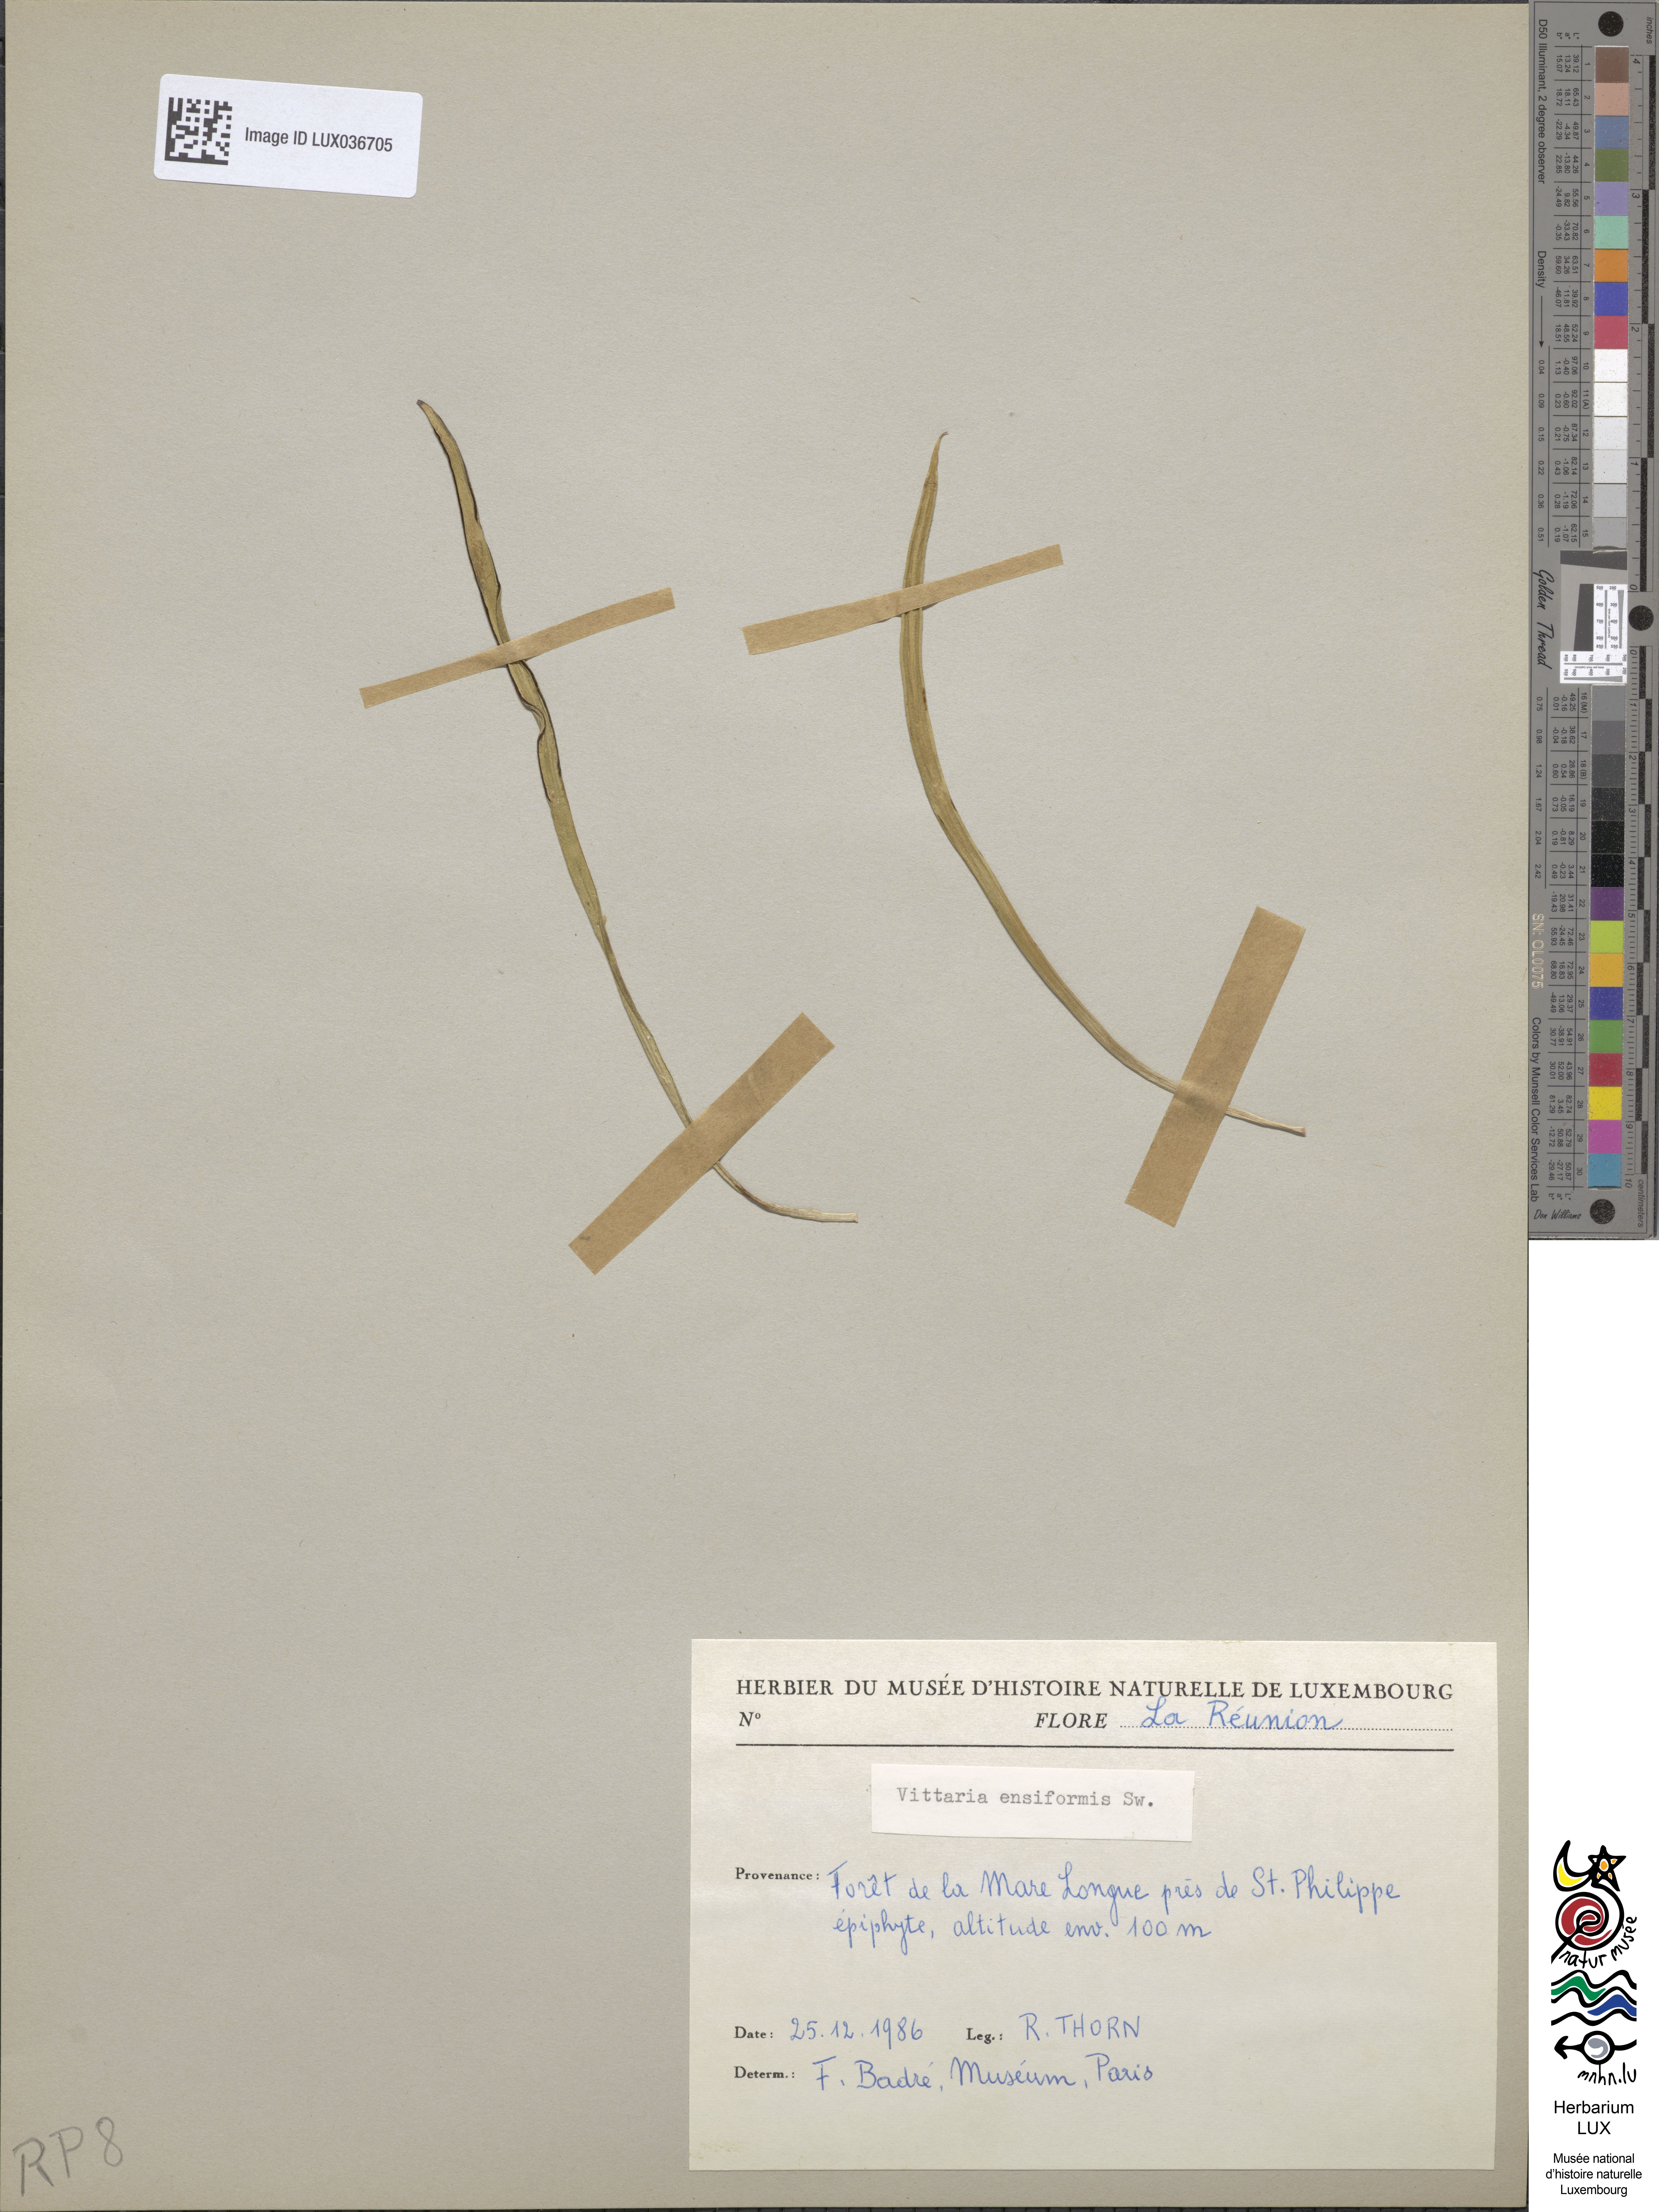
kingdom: Plantae
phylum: Tracheophyta
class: Polypodiopsida
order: Polypodiales
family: Pteridaceae
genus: Haplopteris
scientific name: Haplopteris ensiformis
